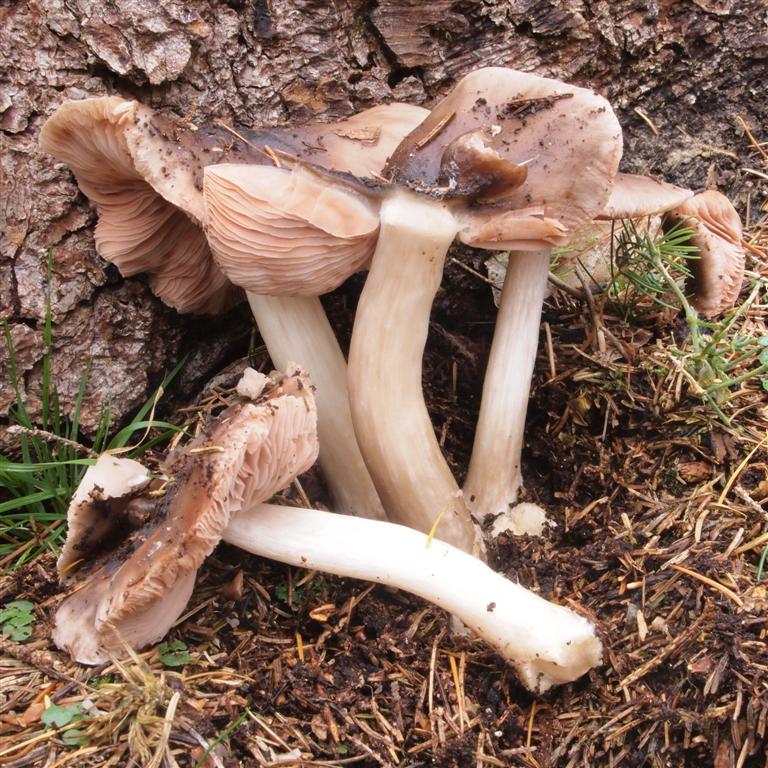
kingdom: Fungi
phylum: Basidiomycota
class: Agaricomycetes
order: Agaricales
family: Pluteaceae
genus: Pluteus
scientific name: Pluteus cervinus
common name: sodfarvet skærmhat
